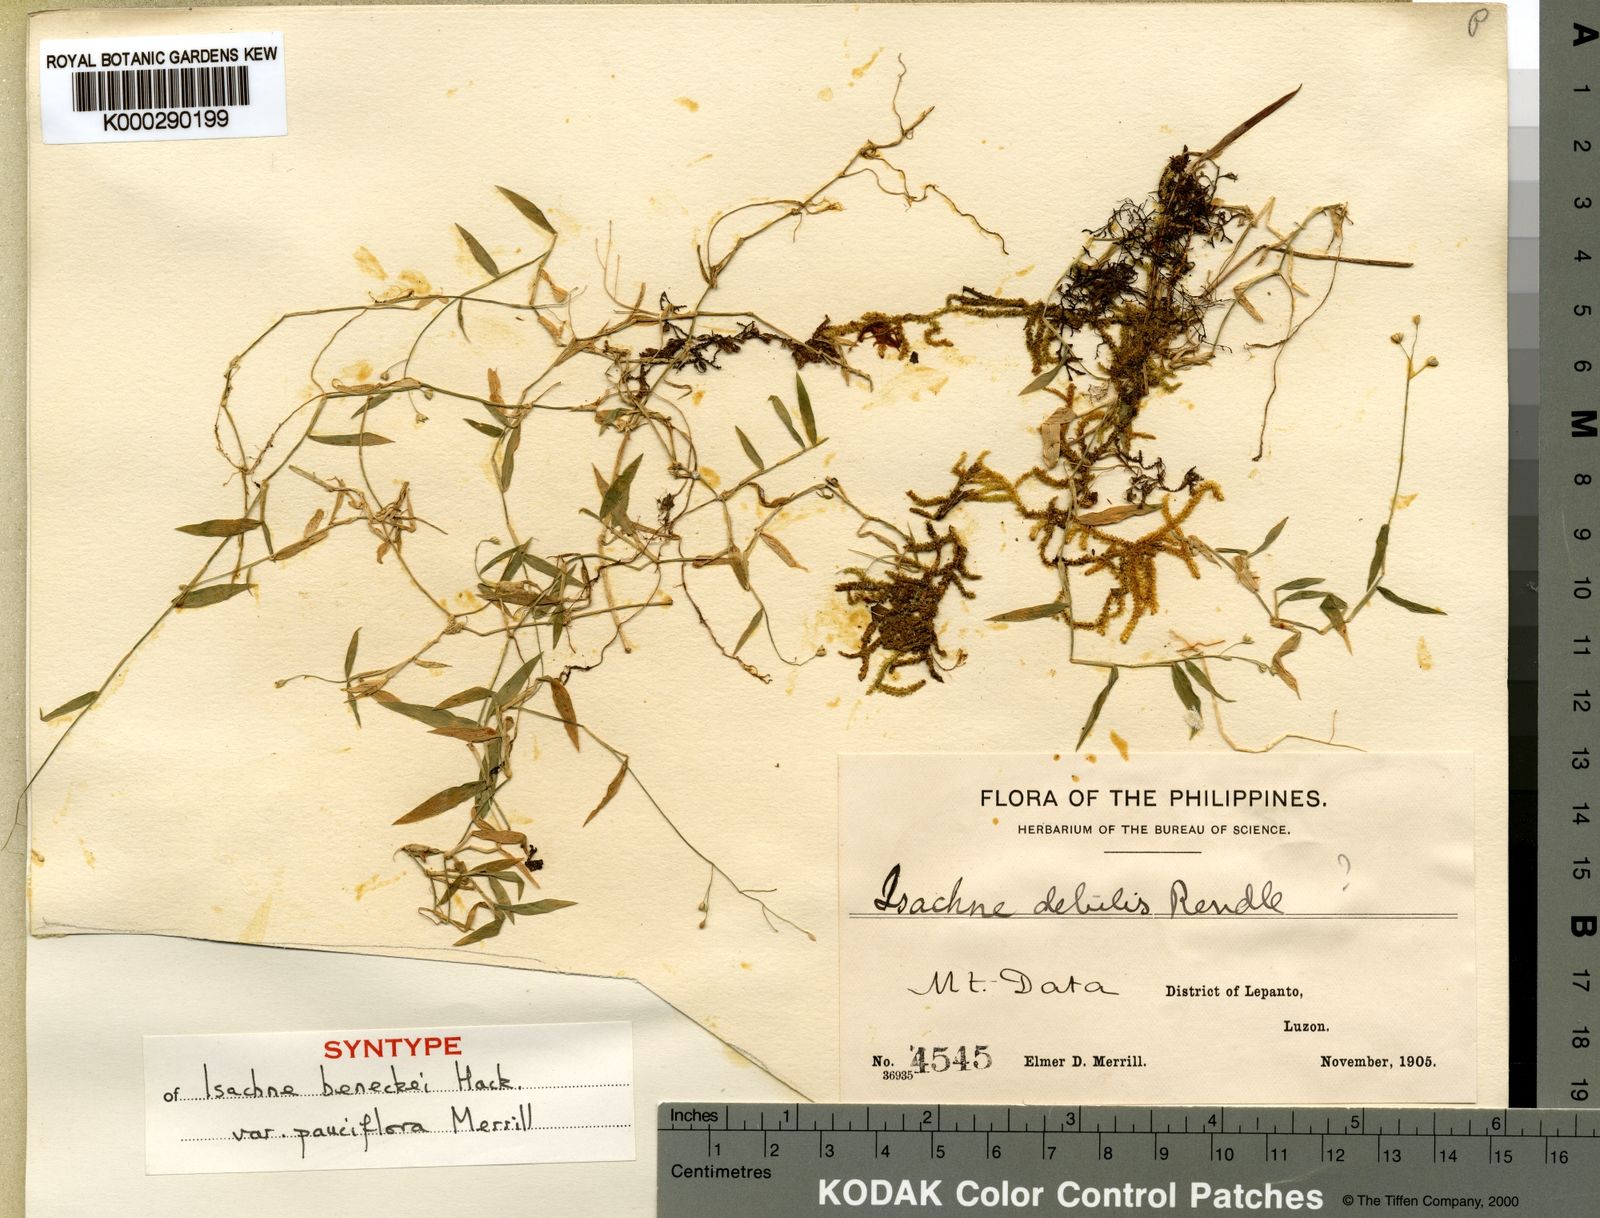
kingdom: Plantae
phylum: Tracheophyta
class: Liliopsida
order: Poales
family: Poaceae
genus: Isachne
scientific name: Isachne myosotis
